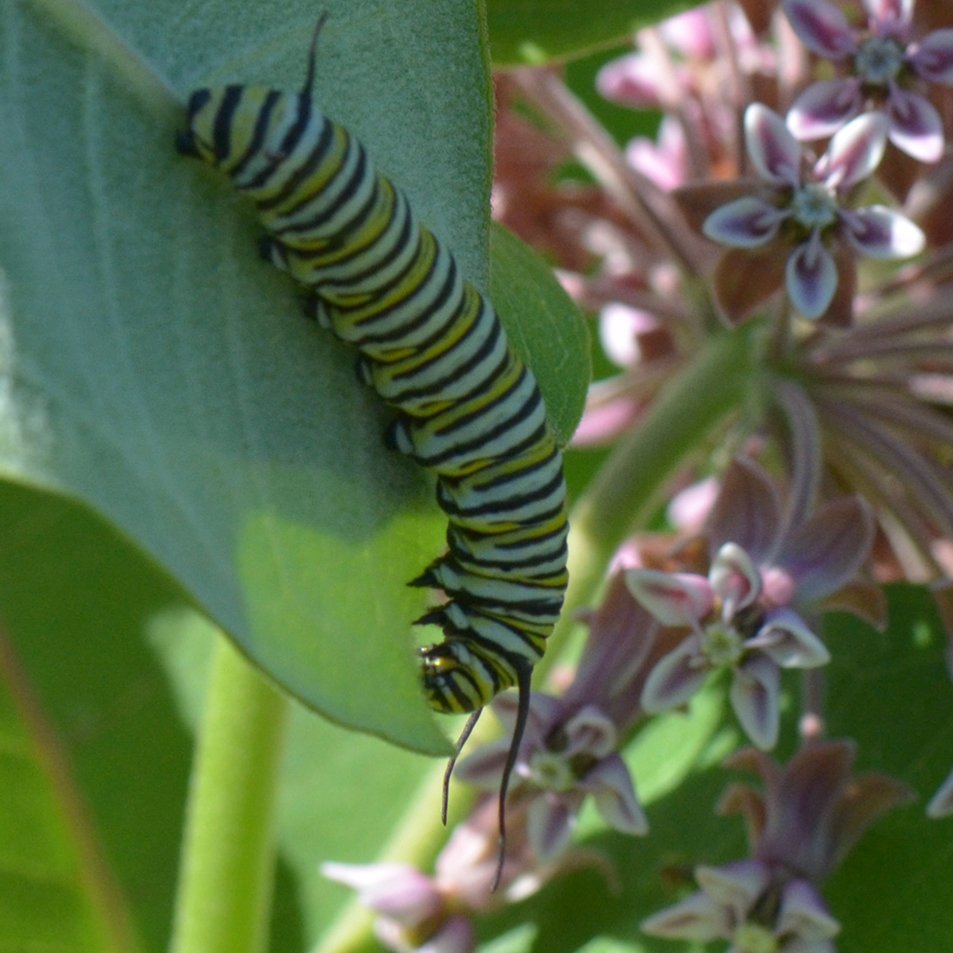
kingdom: Animalia
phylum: Arthropoda
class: Insecta
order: Lepidoptera
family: Nymphalidae
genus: Danaus
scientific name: Danaus plexippus
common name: Monarch
